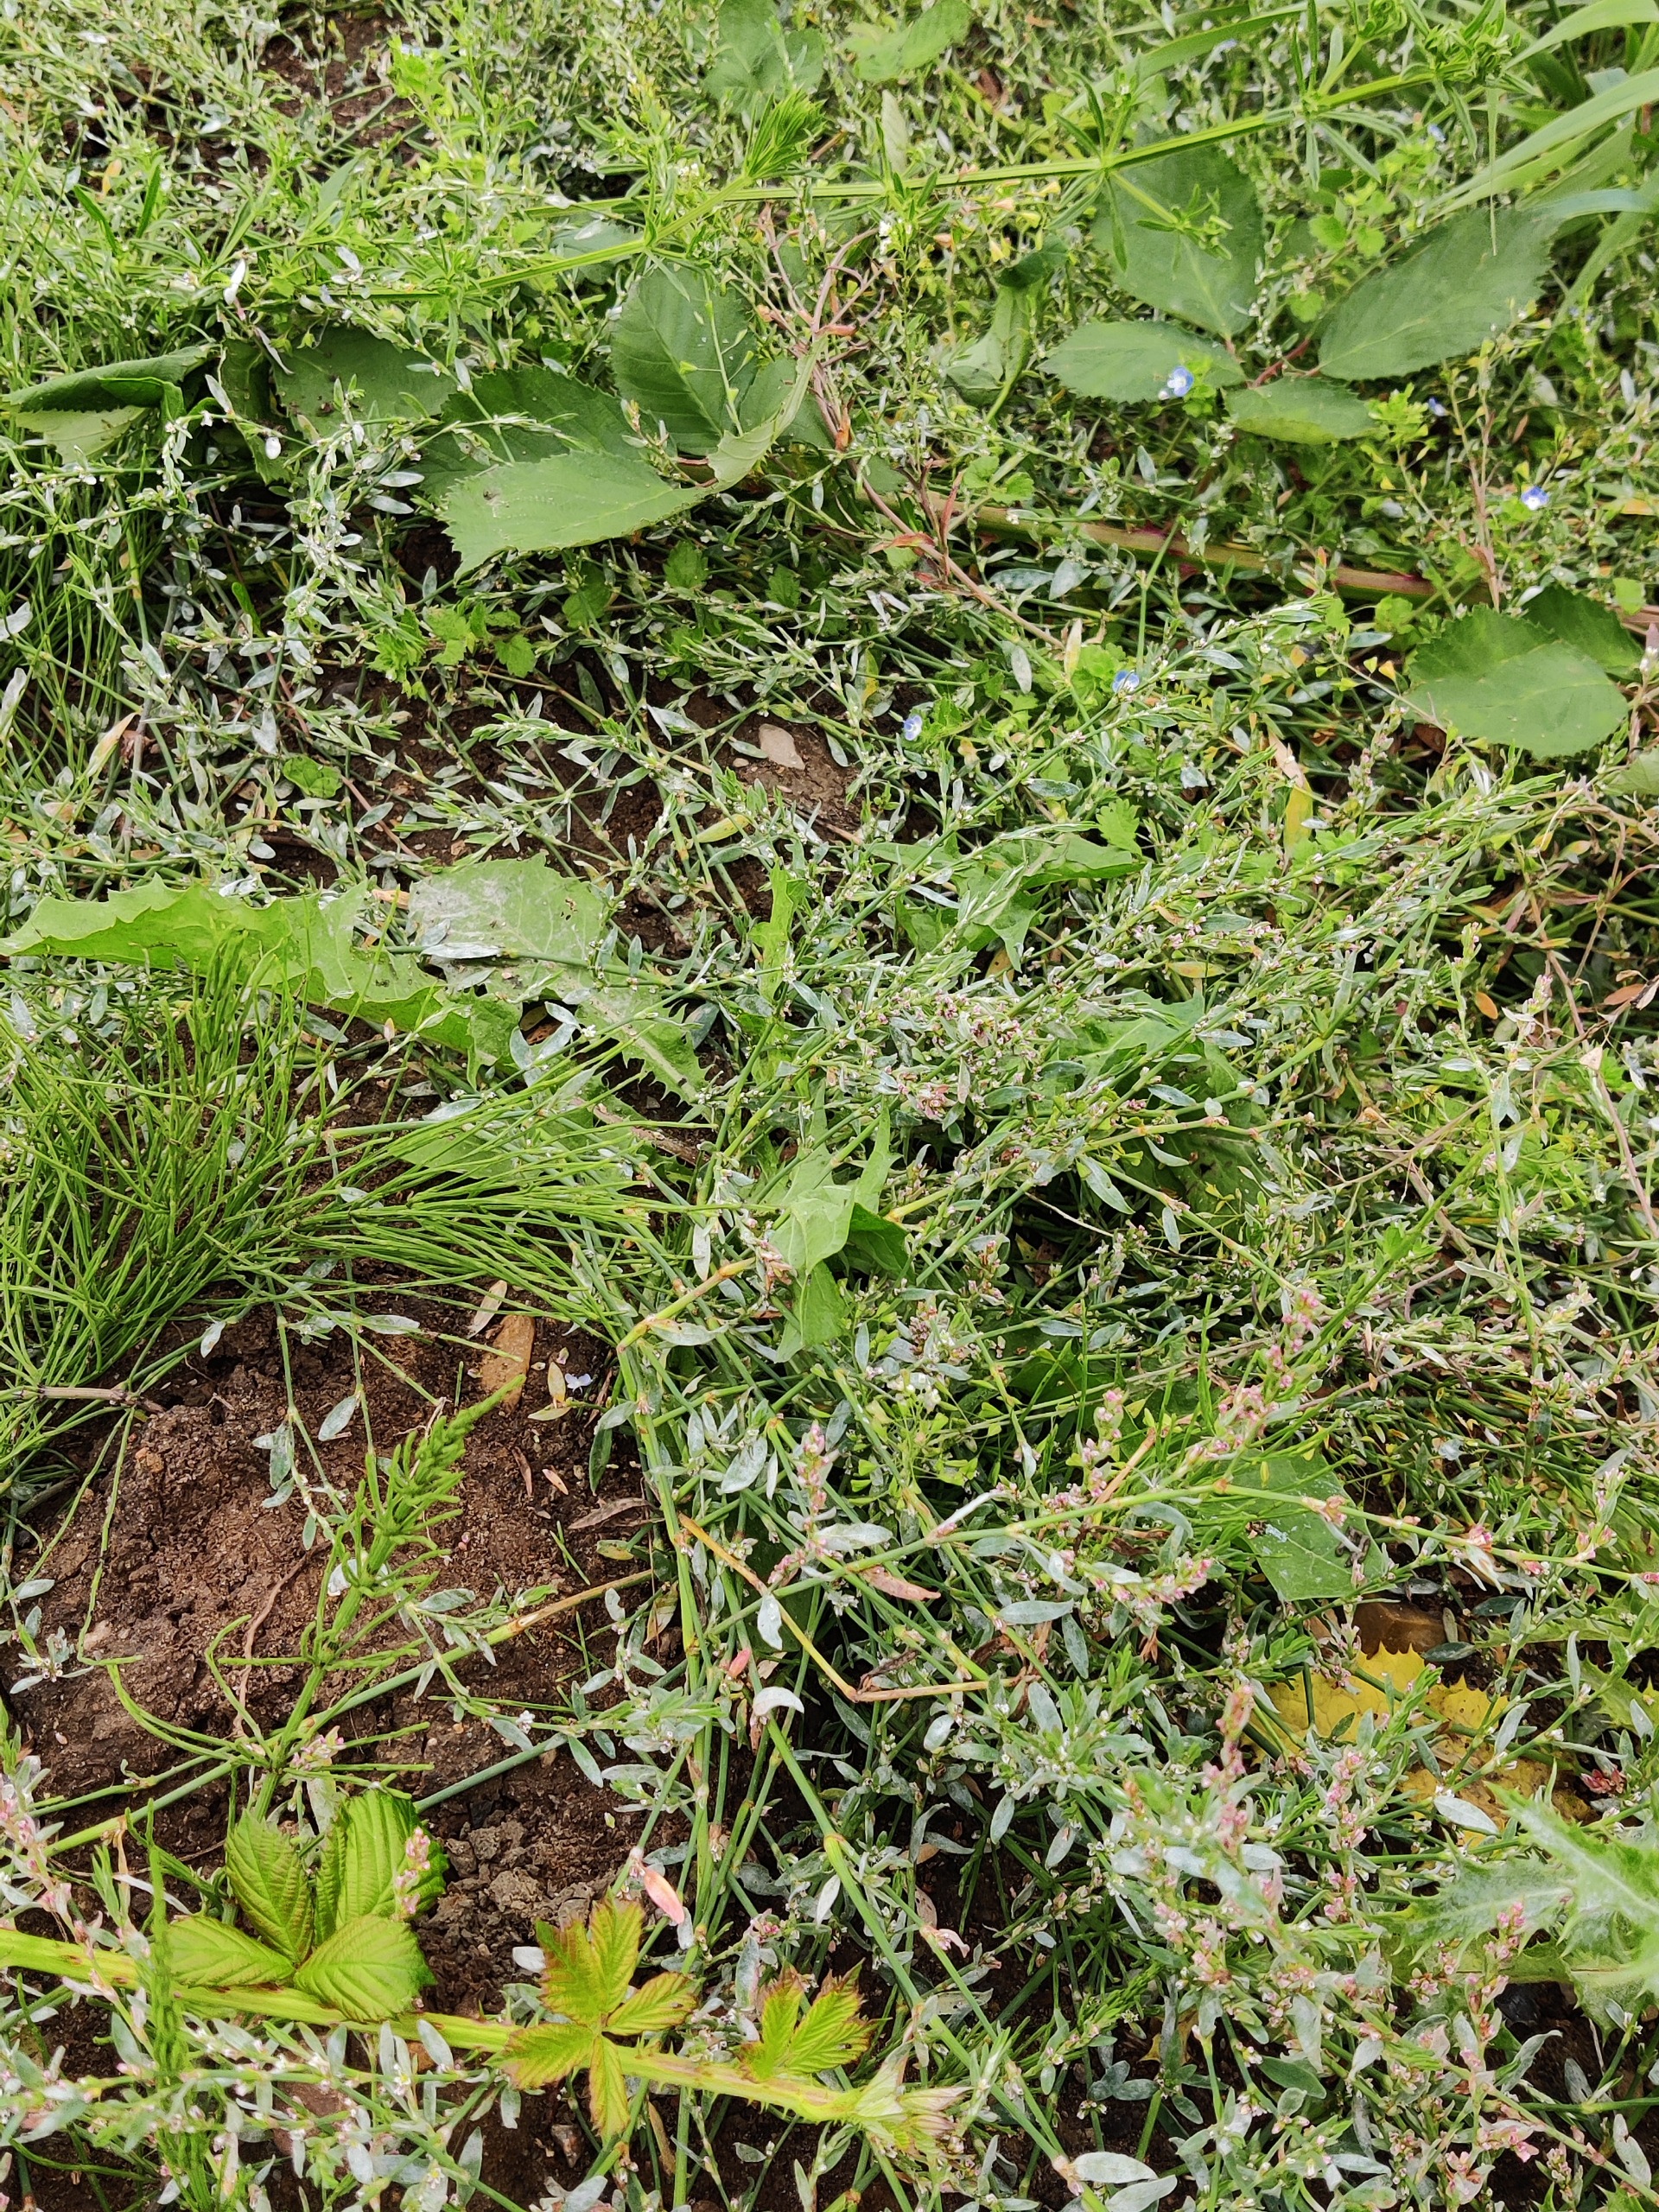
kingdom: Plantae
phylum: Tracheophyta
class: Magnoliopsida
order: Caryophyllales
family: Polygonaceae
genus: Polygonum
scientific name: Polygonum arenastrum
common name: Liggende vej-pileurt
